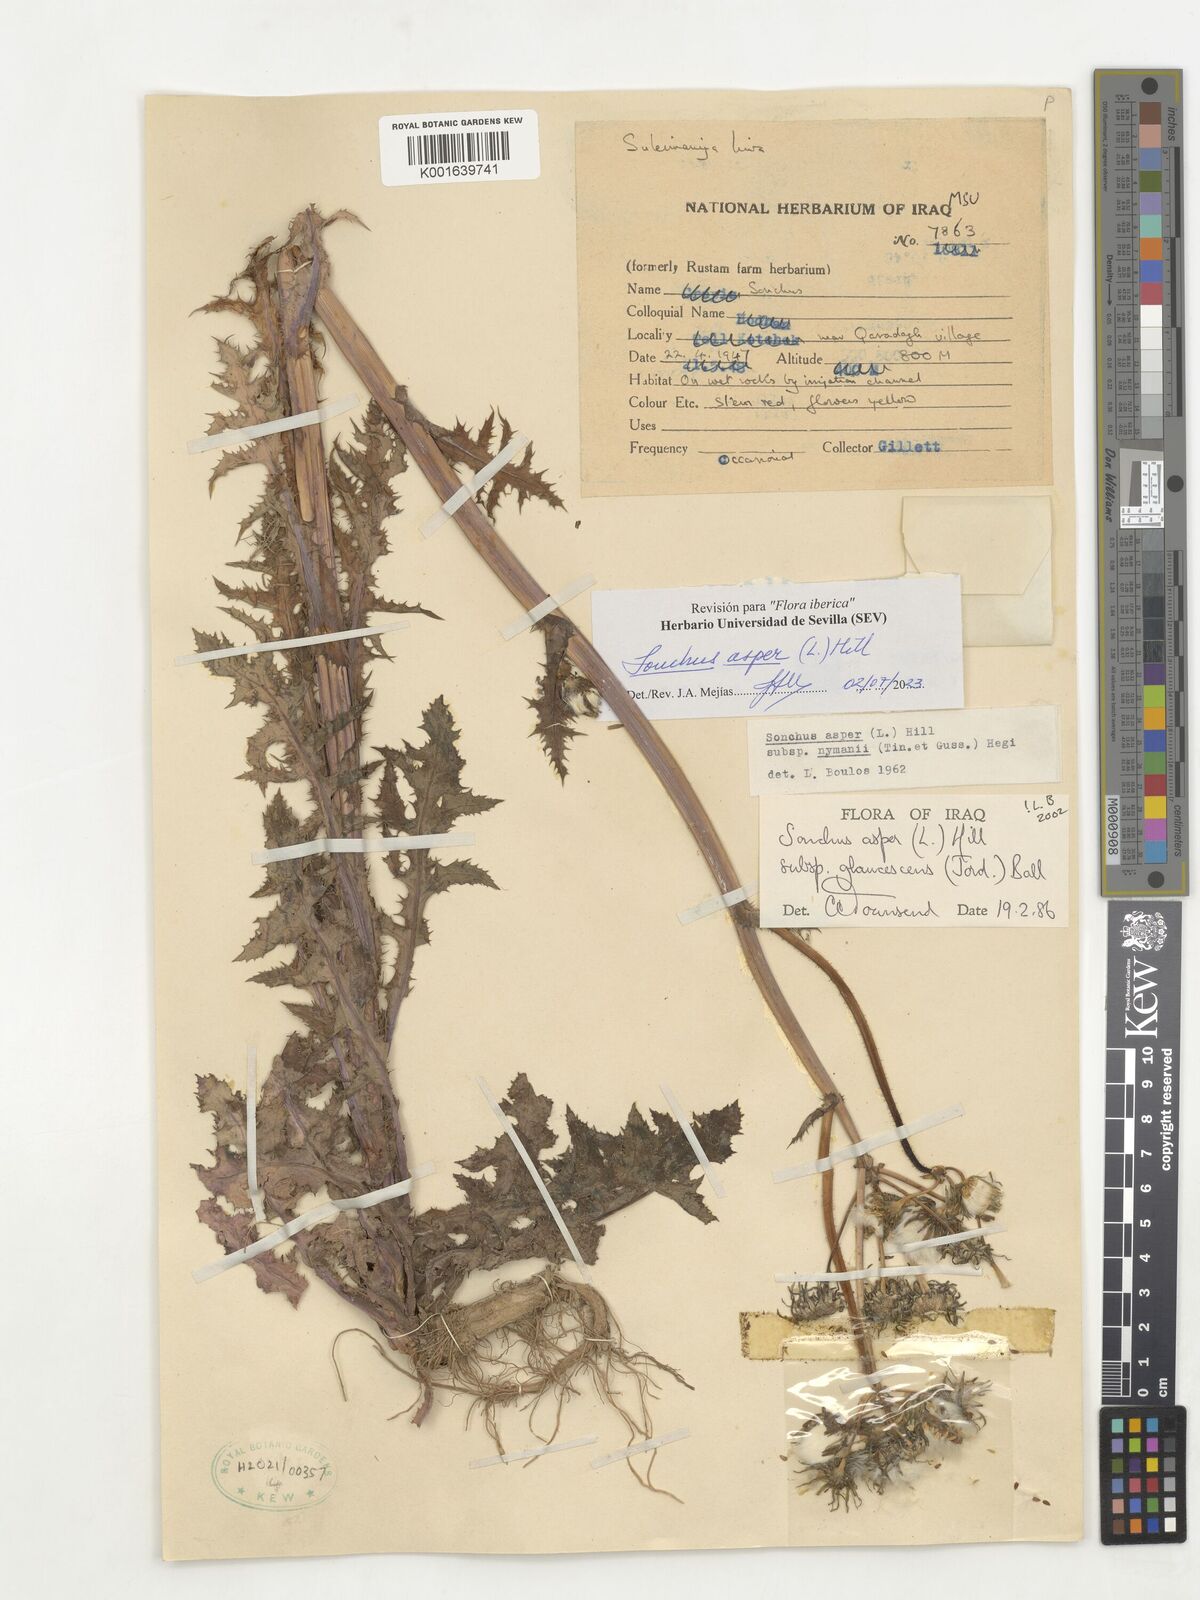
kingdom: Plantae
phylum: Tracheophyta
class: Magnoliopsida
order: Asterales
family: Asteraceae
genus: Sonchus
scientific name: Sonchus asper
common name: Prickly sow-thistle
